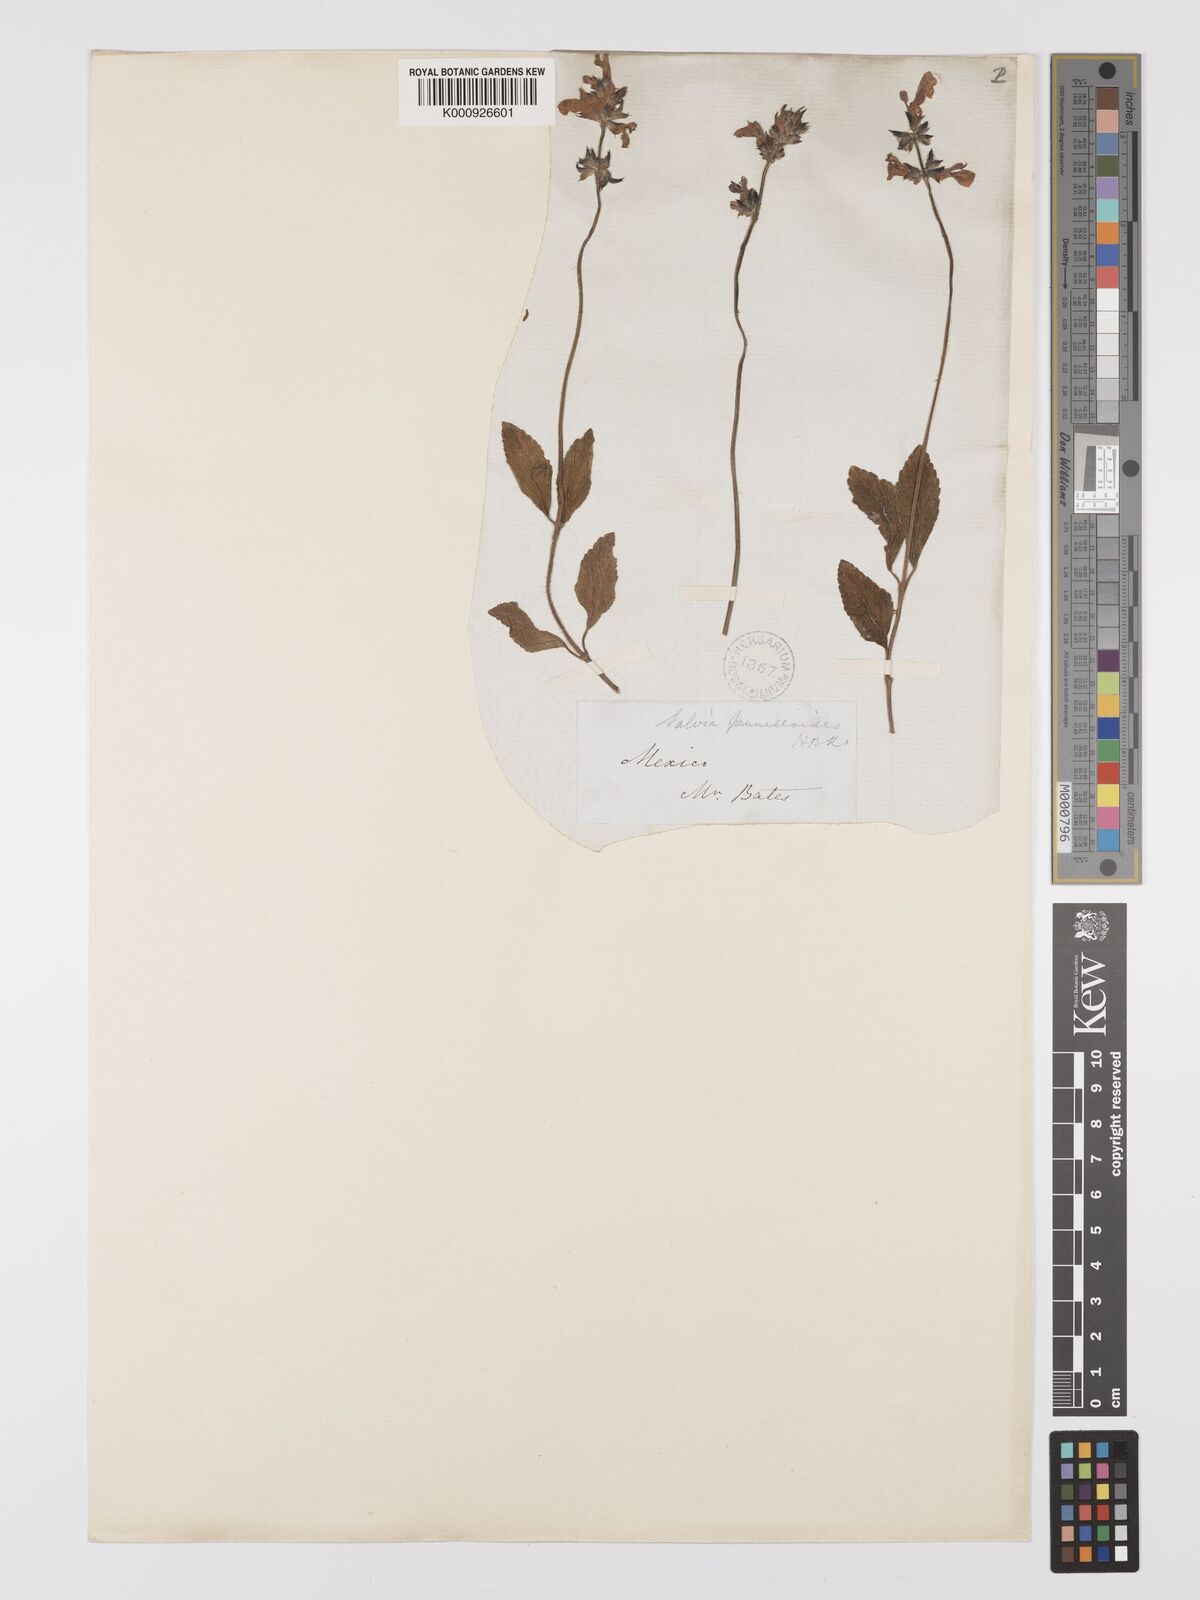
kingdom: Plantae
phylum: Tracheophyta
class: Magnoliopsida
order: Lamiales
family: Lamiaceae
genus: Salvia
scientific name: Salvia nana
